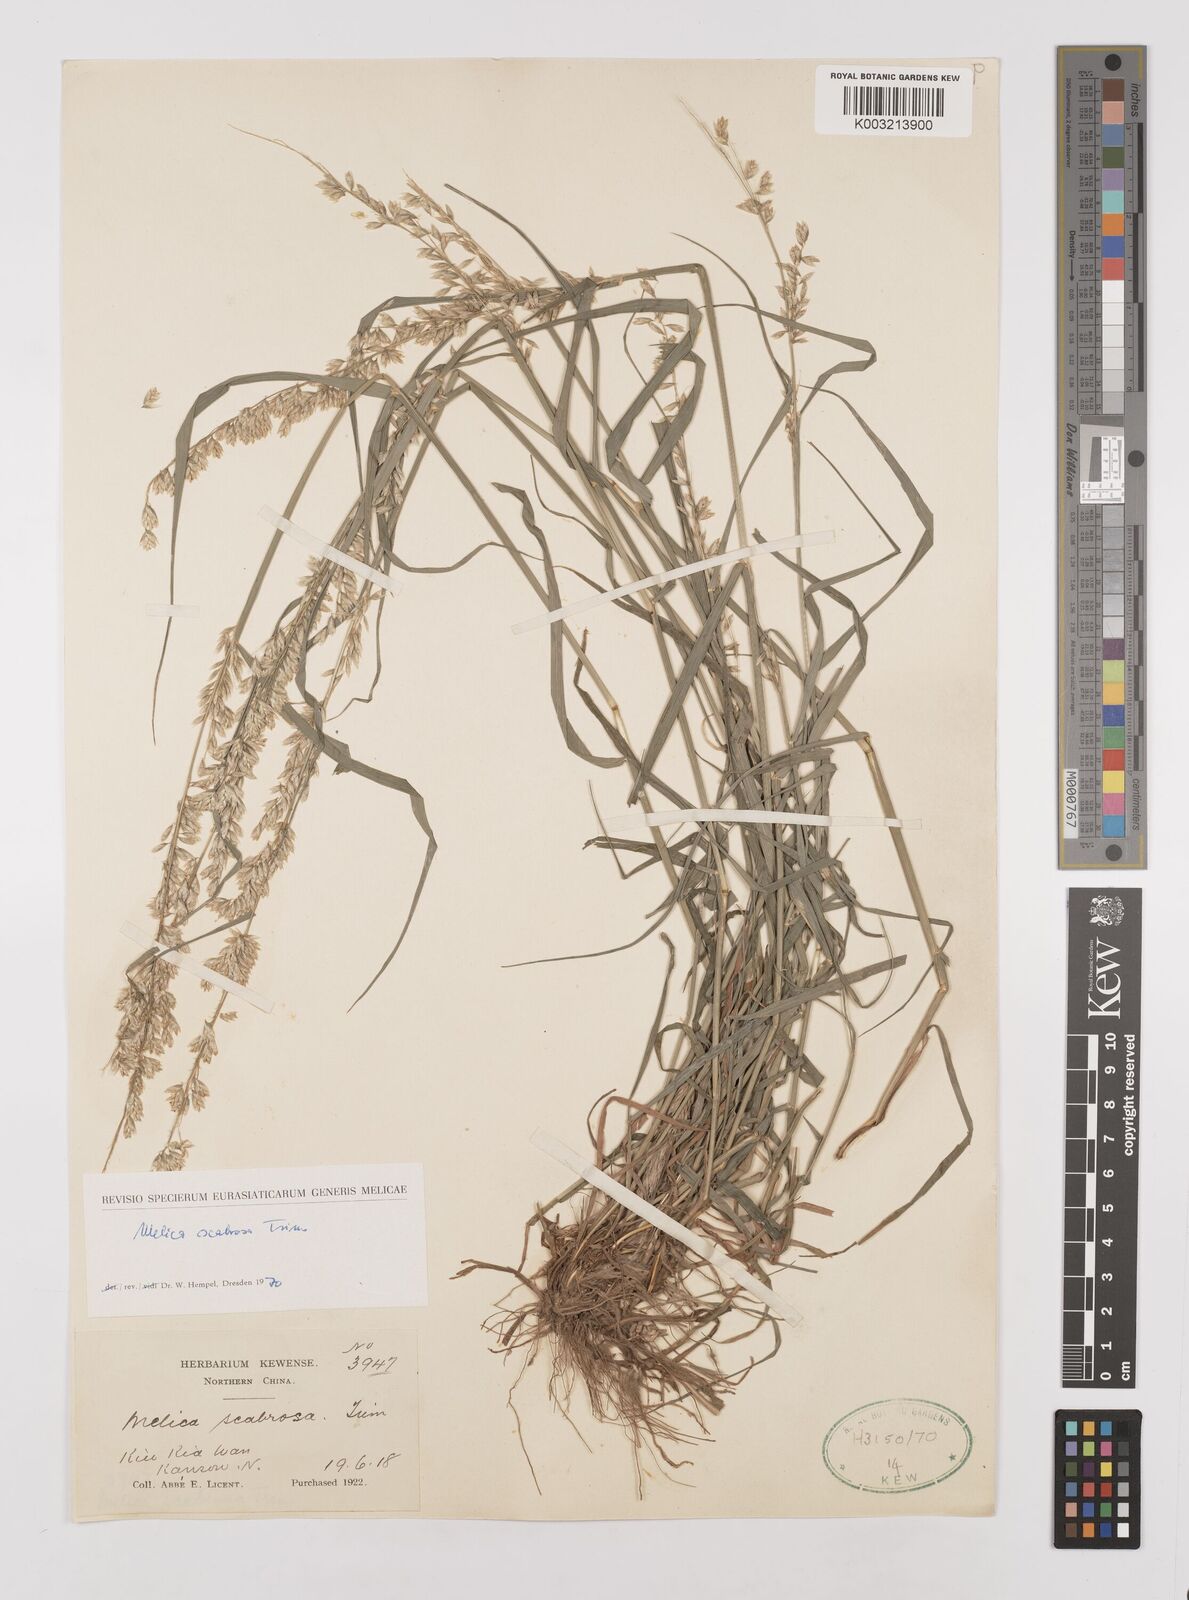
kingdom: Plantae
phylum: Tracheophyta
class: Liliopsida
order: Poales
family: Poaceae
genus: Melica
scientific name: Melica scabrosa
